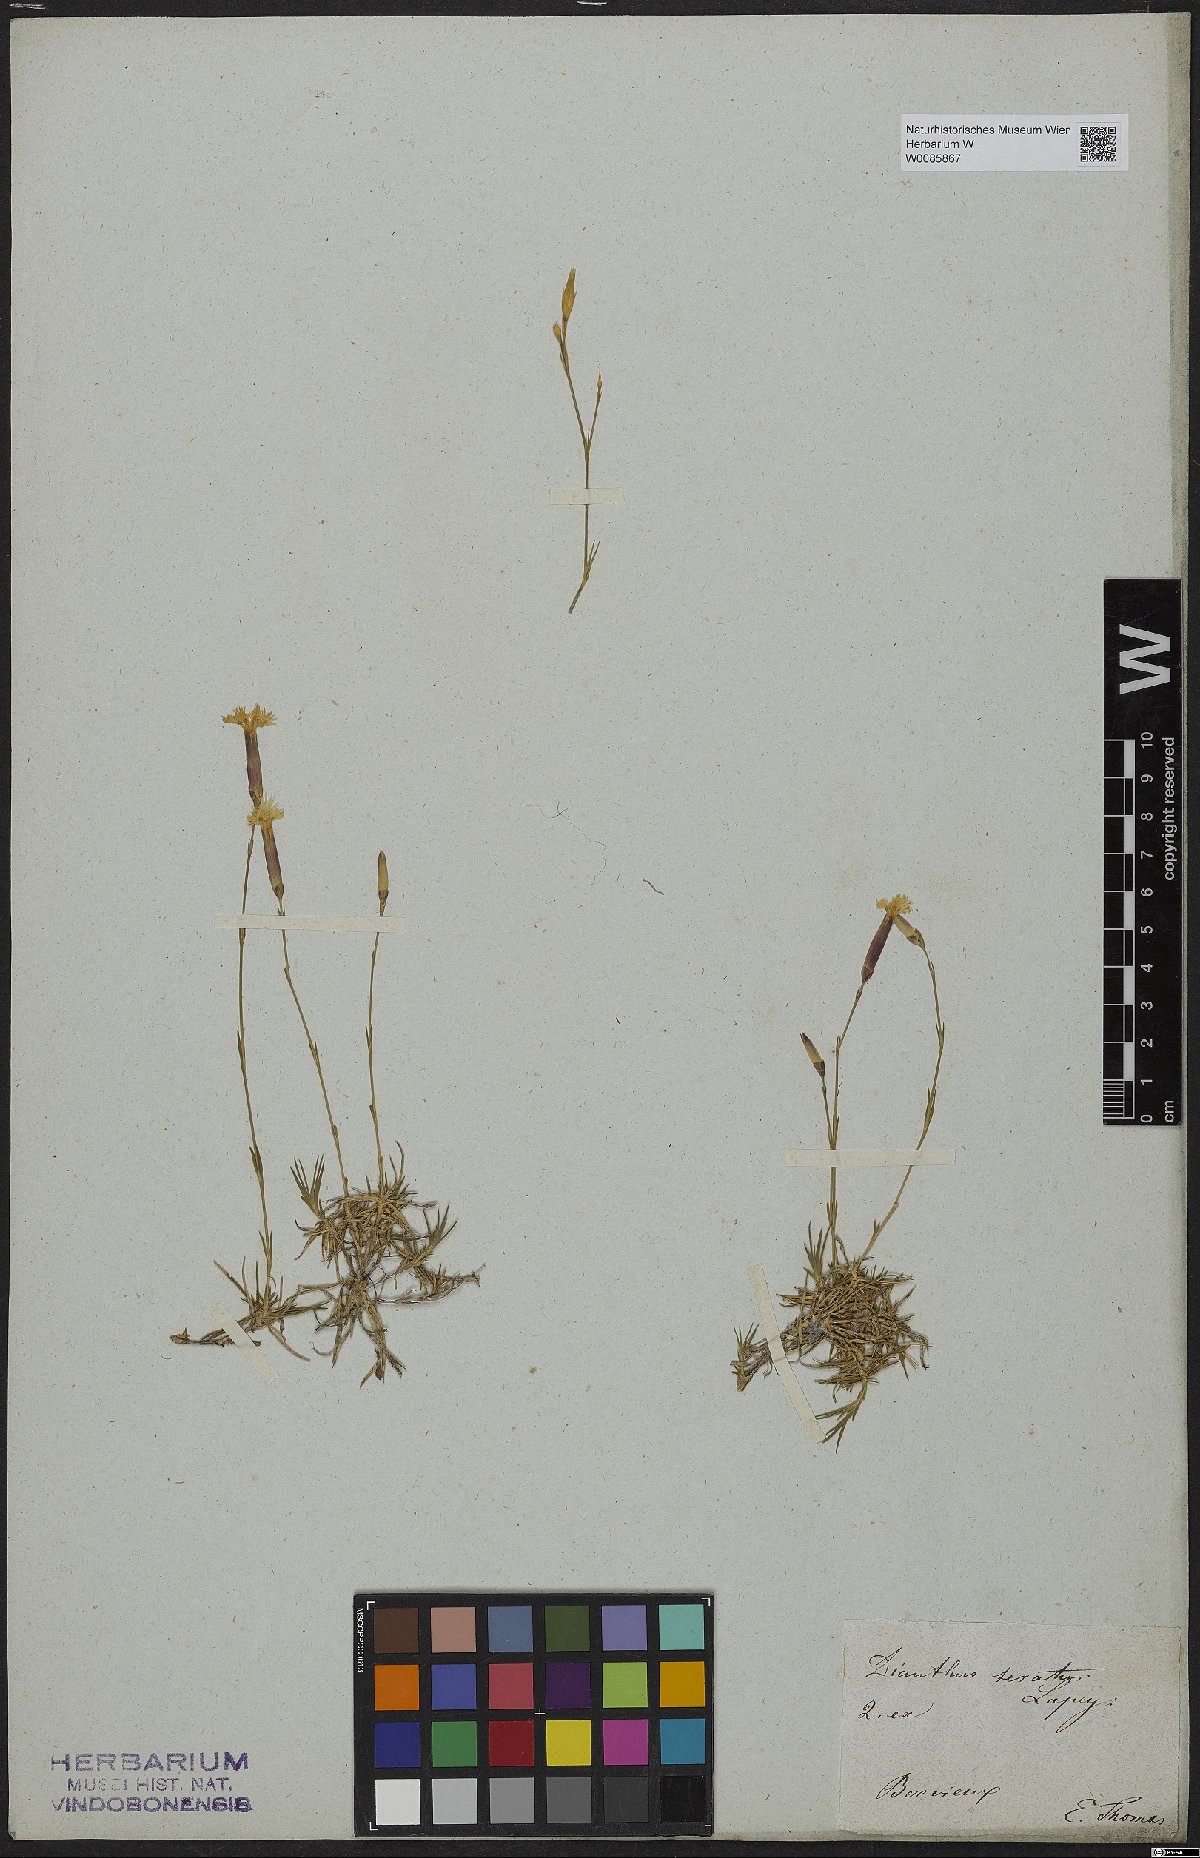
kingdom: Plantae
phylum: Tracheophyta
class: Magnoliopsida
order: Caryophyllales
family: Caryophyllaceae
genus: Dianthus
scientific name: Dianthus pungens
